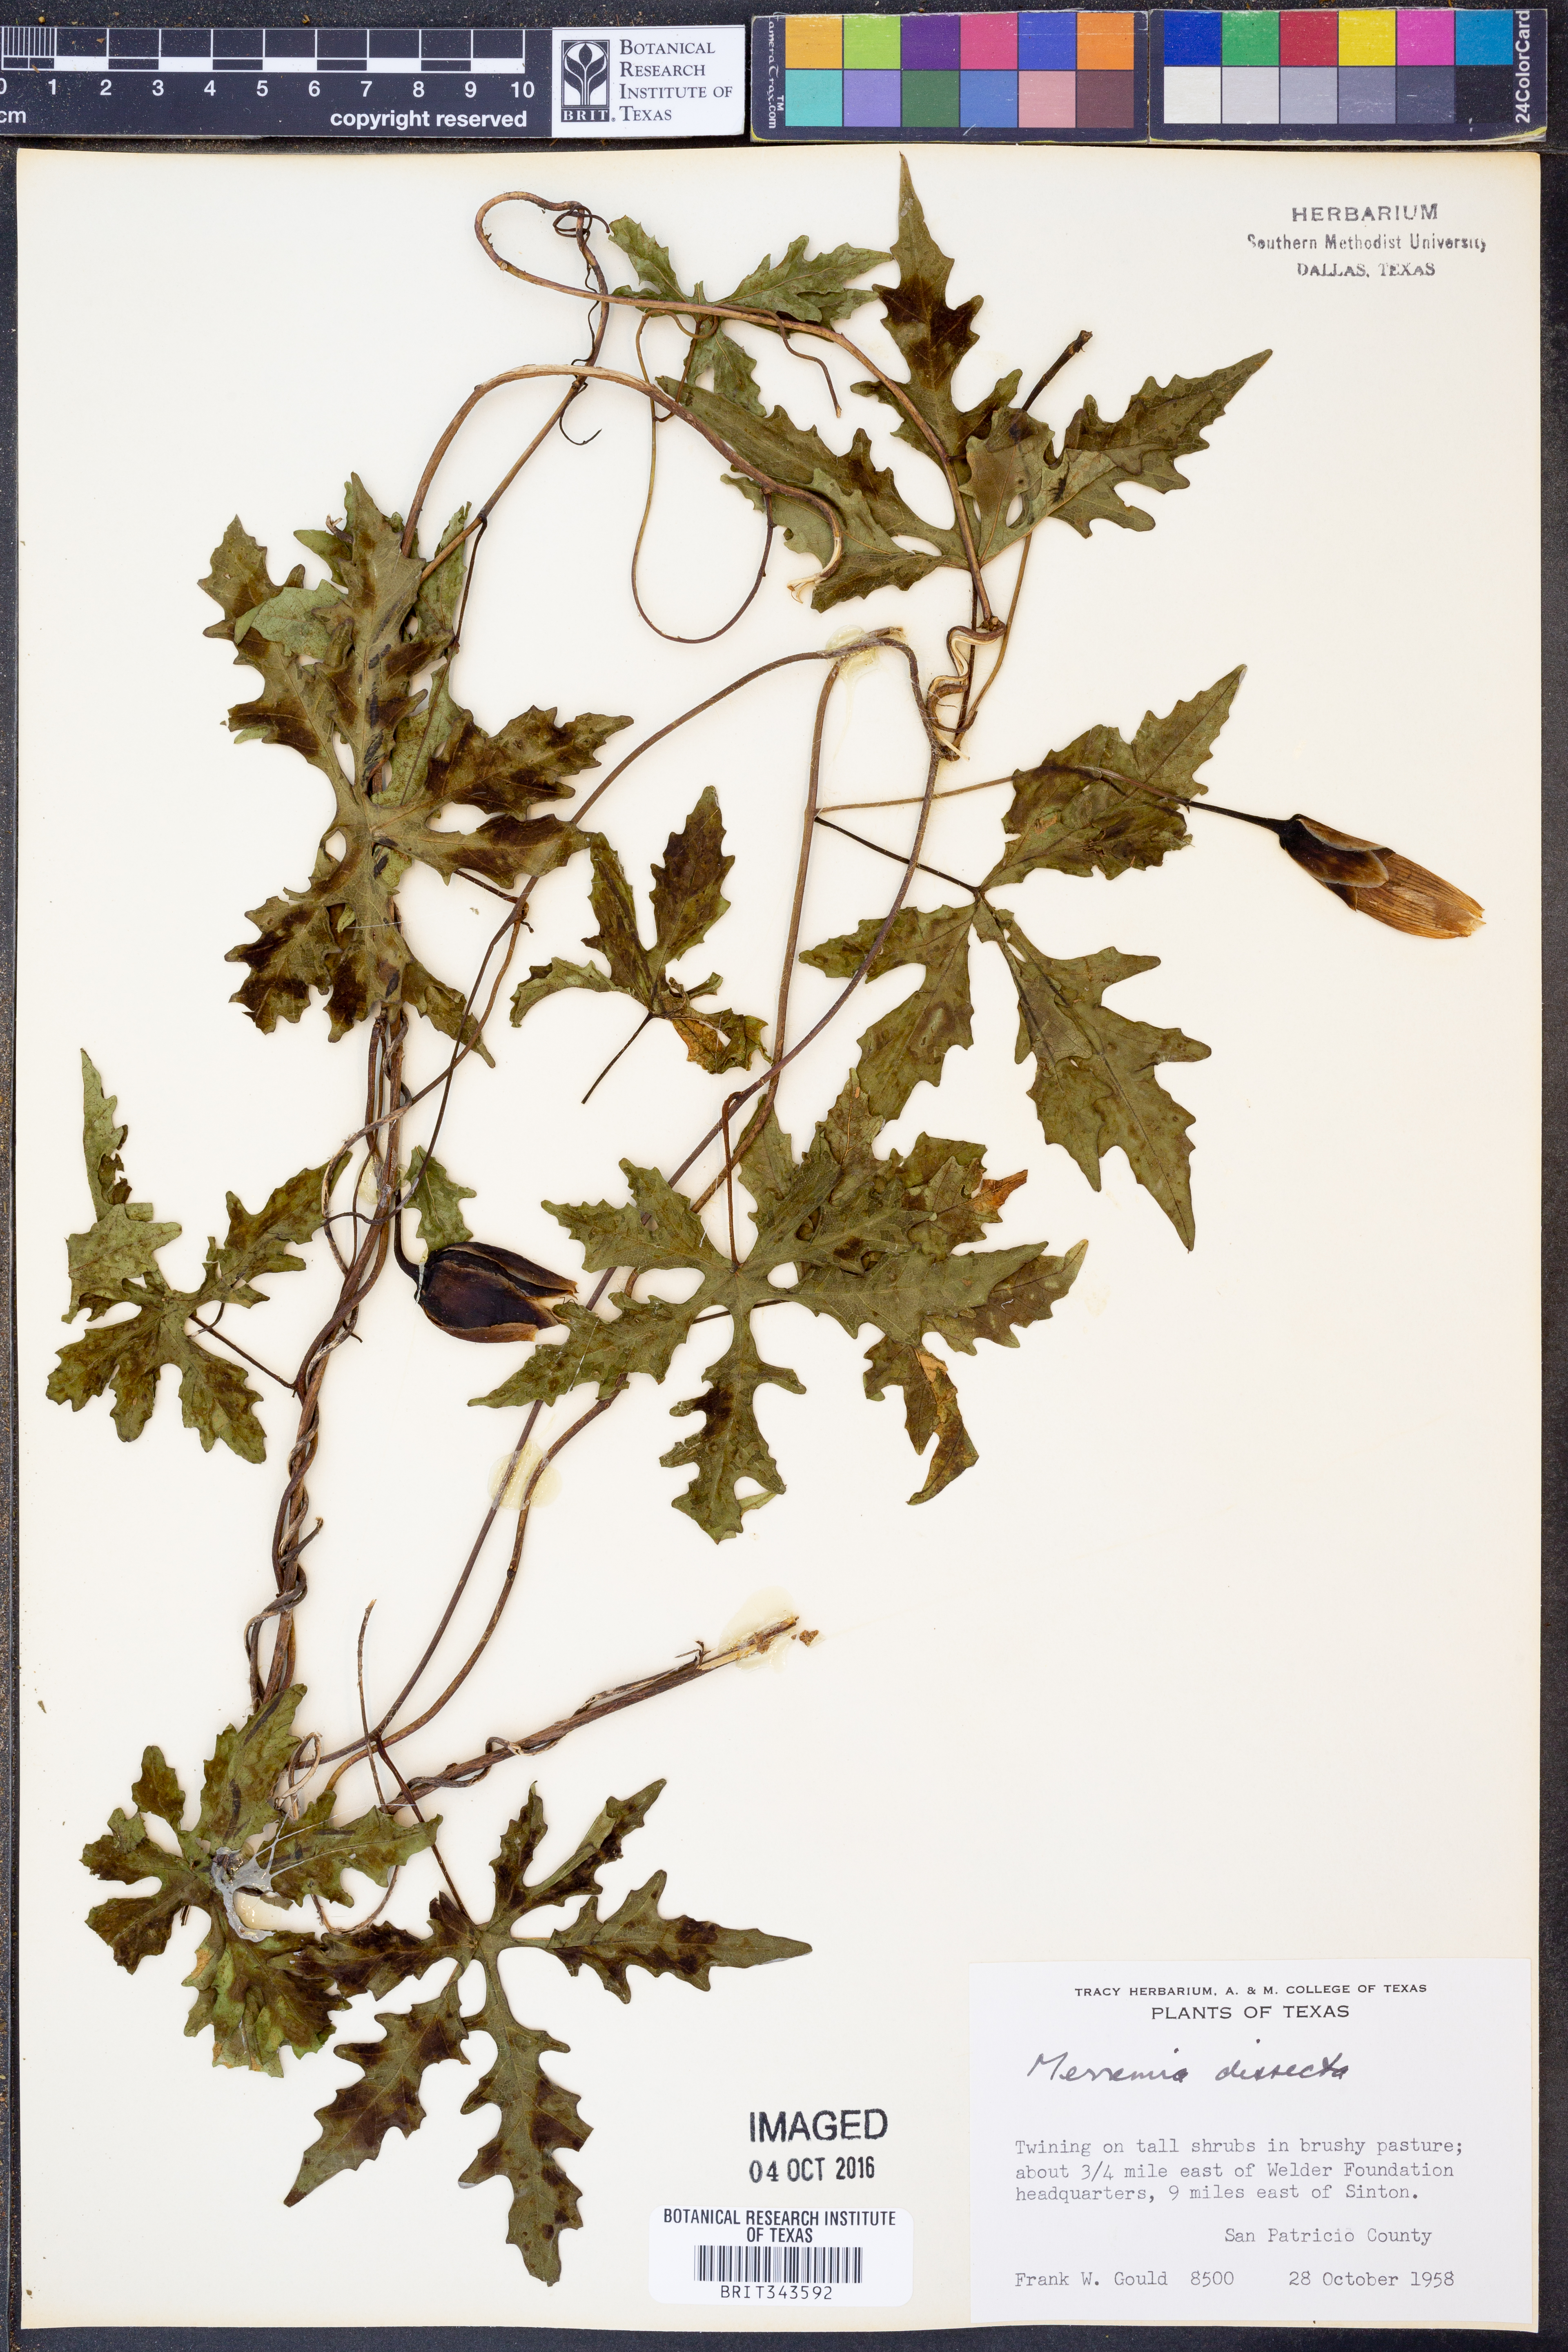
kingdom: Plantae
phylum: Tracheophyta
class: Magnoliopsida
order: Solanales
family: Convolvulaceae
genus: Distimake
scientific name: Distimake dissectus
